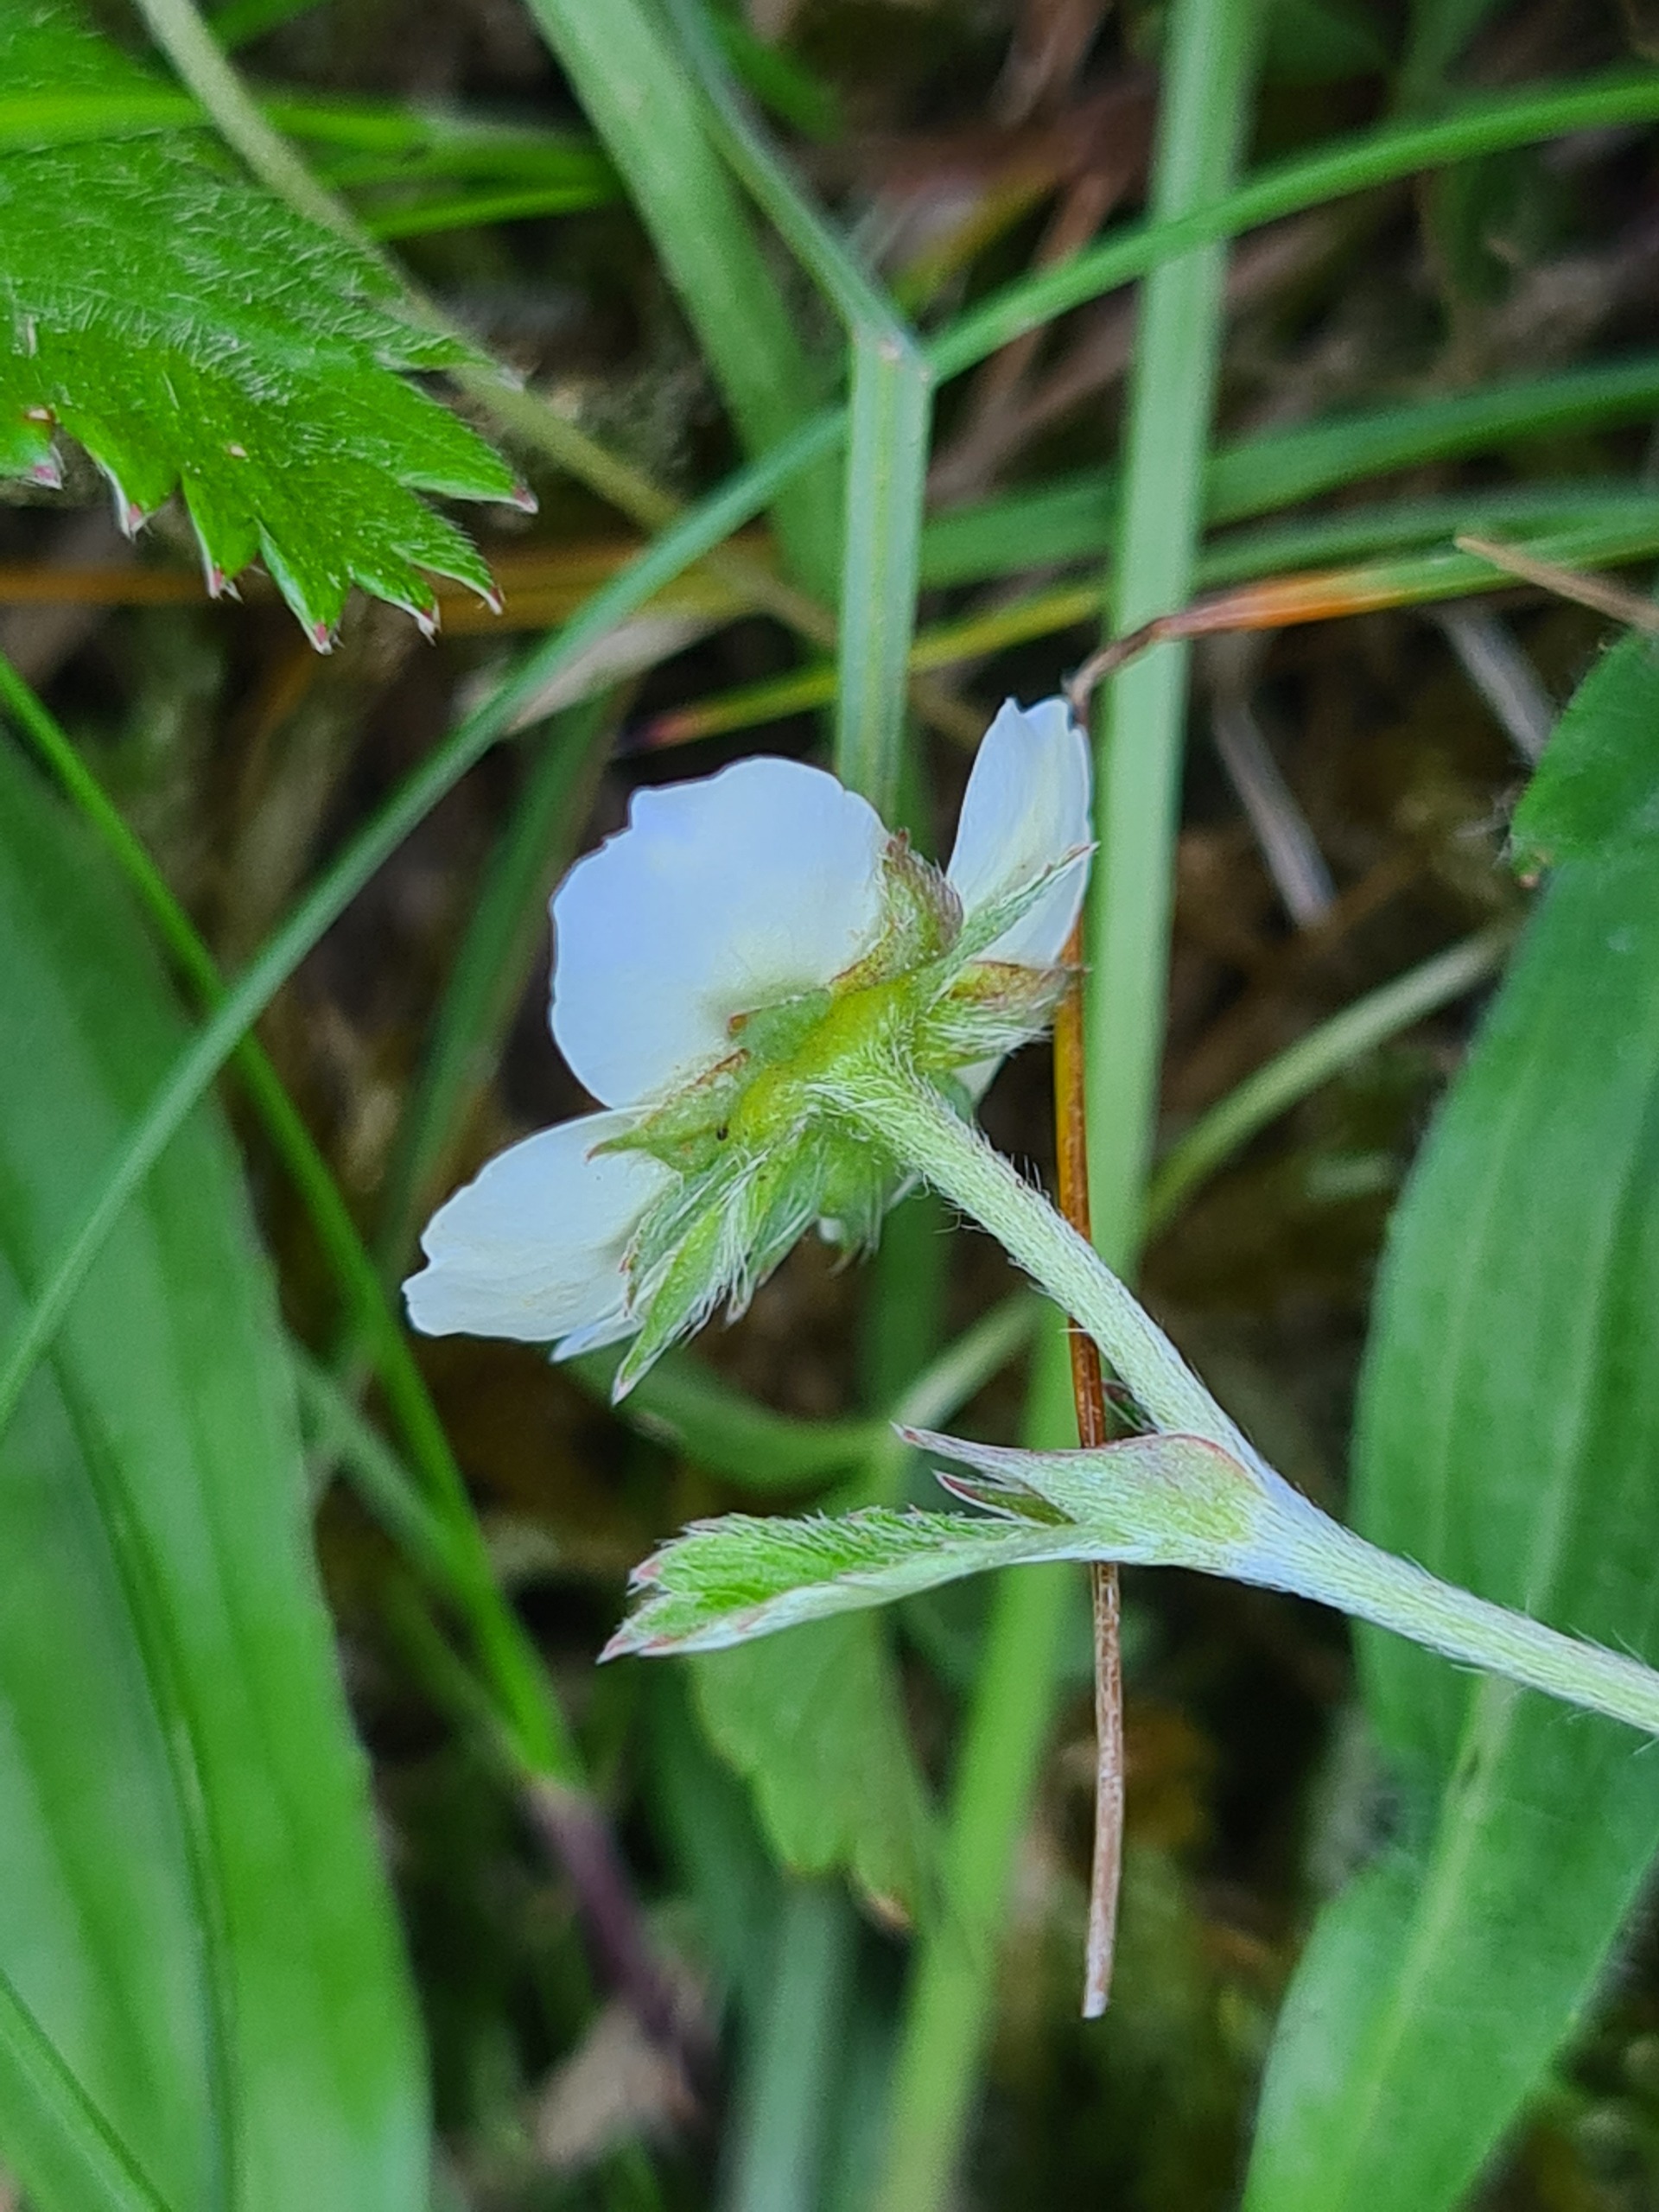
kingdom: Plantae
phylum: Tracheophyta
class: Magnoliopsida
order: Rosales
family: Rosaceae
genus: Fragaria
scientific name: Fragaria vesca
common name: Skov-jordbær
